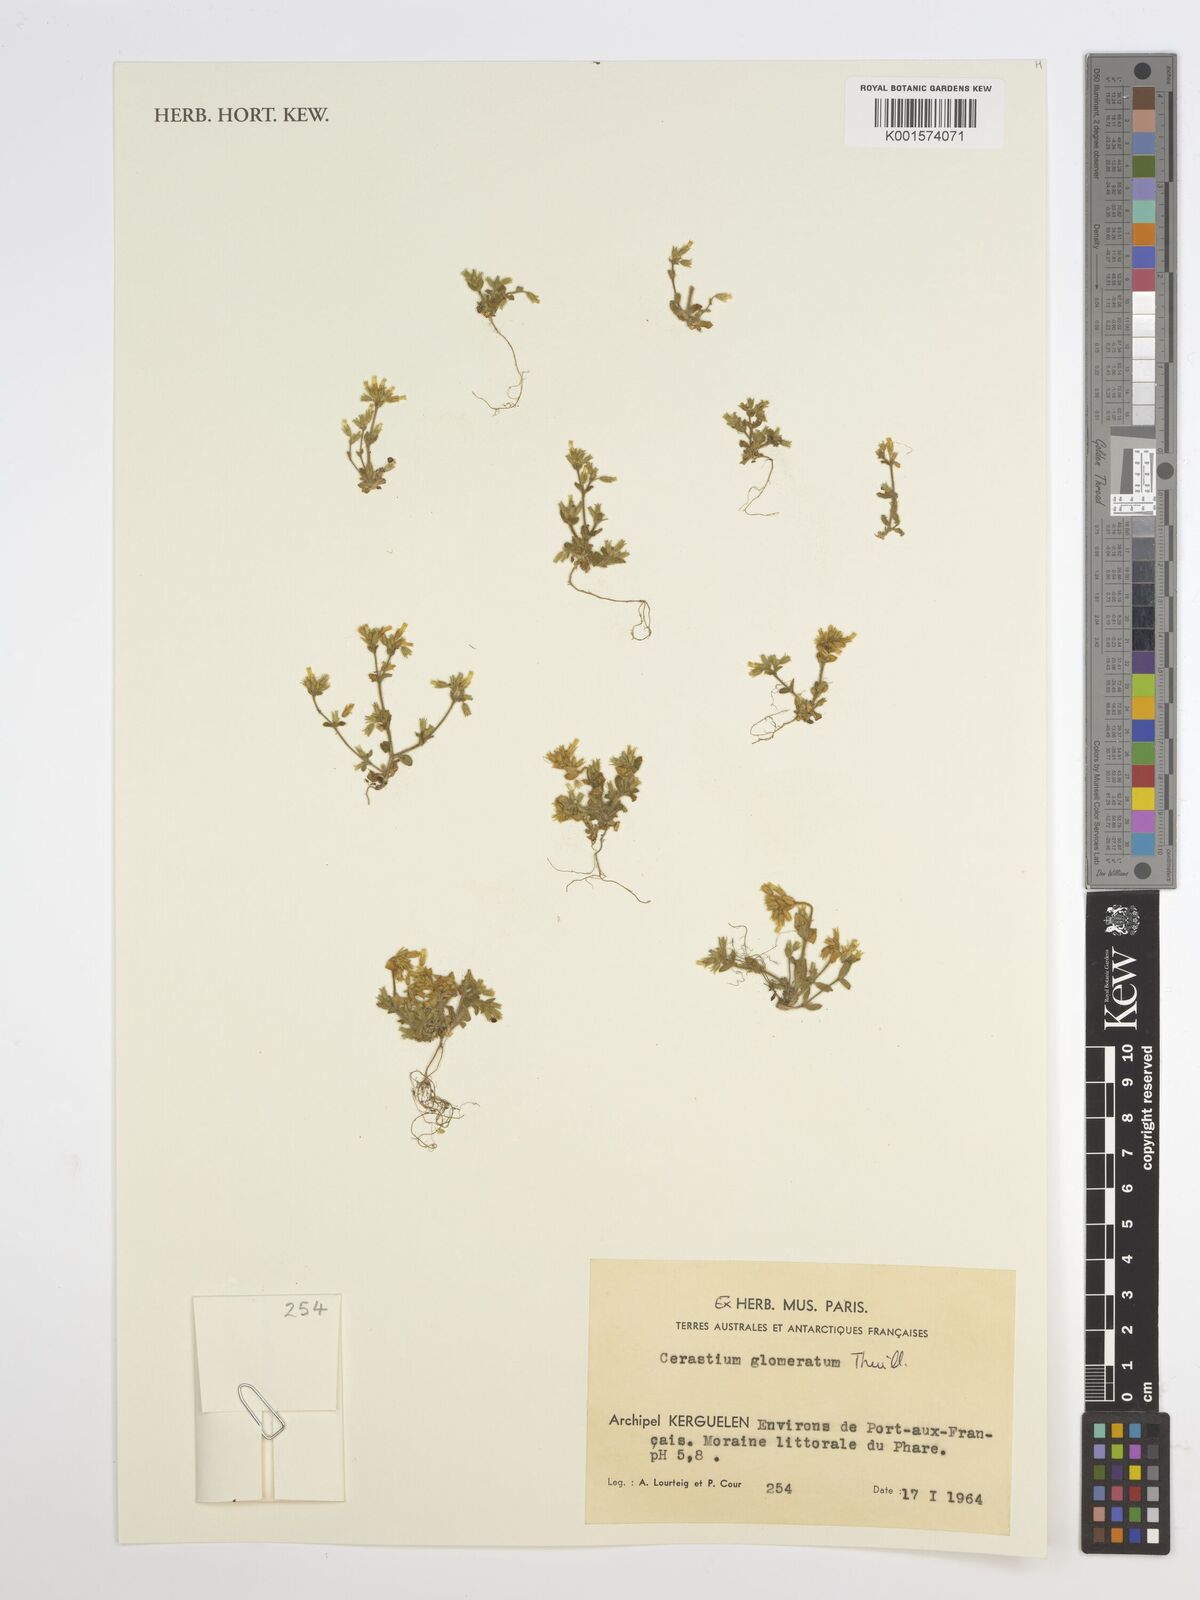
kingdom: Plantae
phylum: Tracheophyta
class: Magnoliopsida
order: Caryophyllales
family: Caryophyllaceae
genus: Cerastium
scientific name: Cerastium glomeratum
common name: Sticky chickweed
